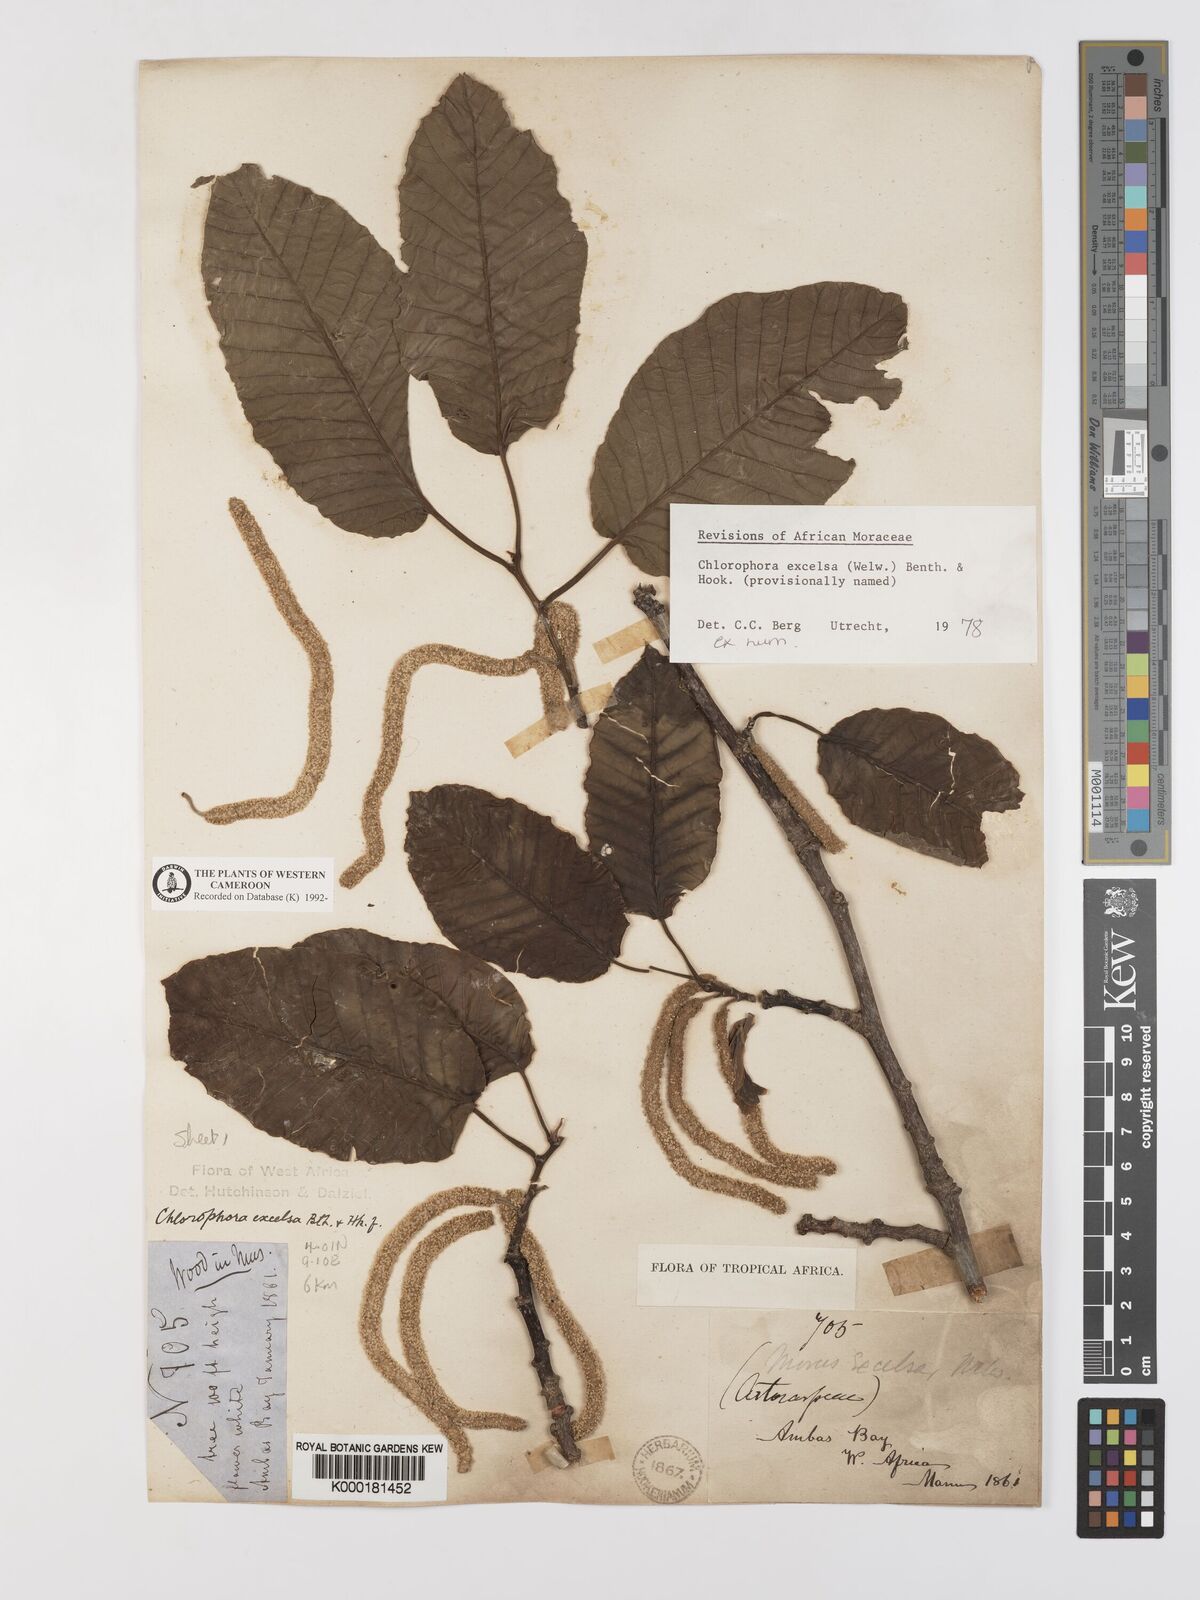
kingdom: Plantae
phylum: Tracheophyta
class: Magnoliopsida
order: Rosales
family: Moraceae
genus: Milicia
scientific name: Milicia excelsa
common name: African teak
